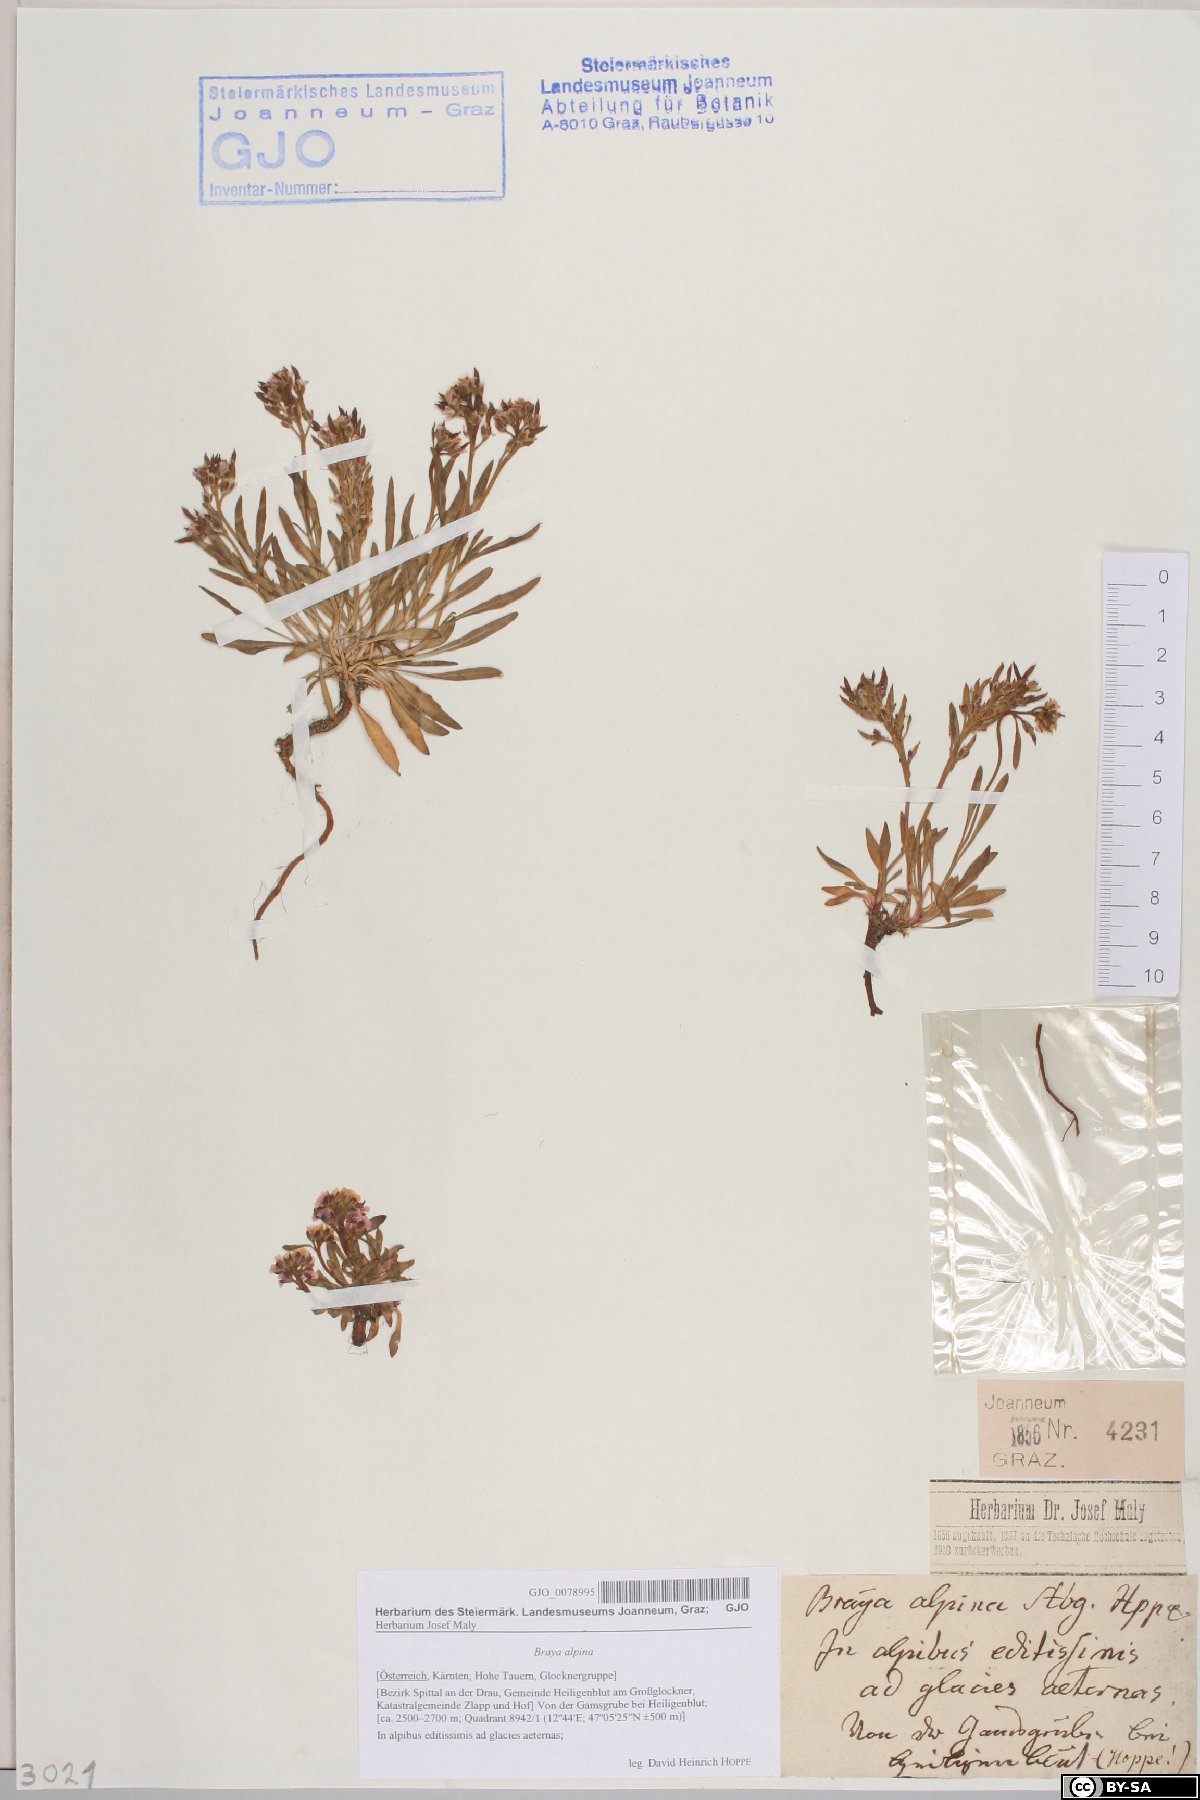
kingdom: Plantae
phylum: Tracheophyta
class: Magnoliopsida
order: Brassicales
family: Brassicaceae
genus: Braya
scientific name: Braya alpina
